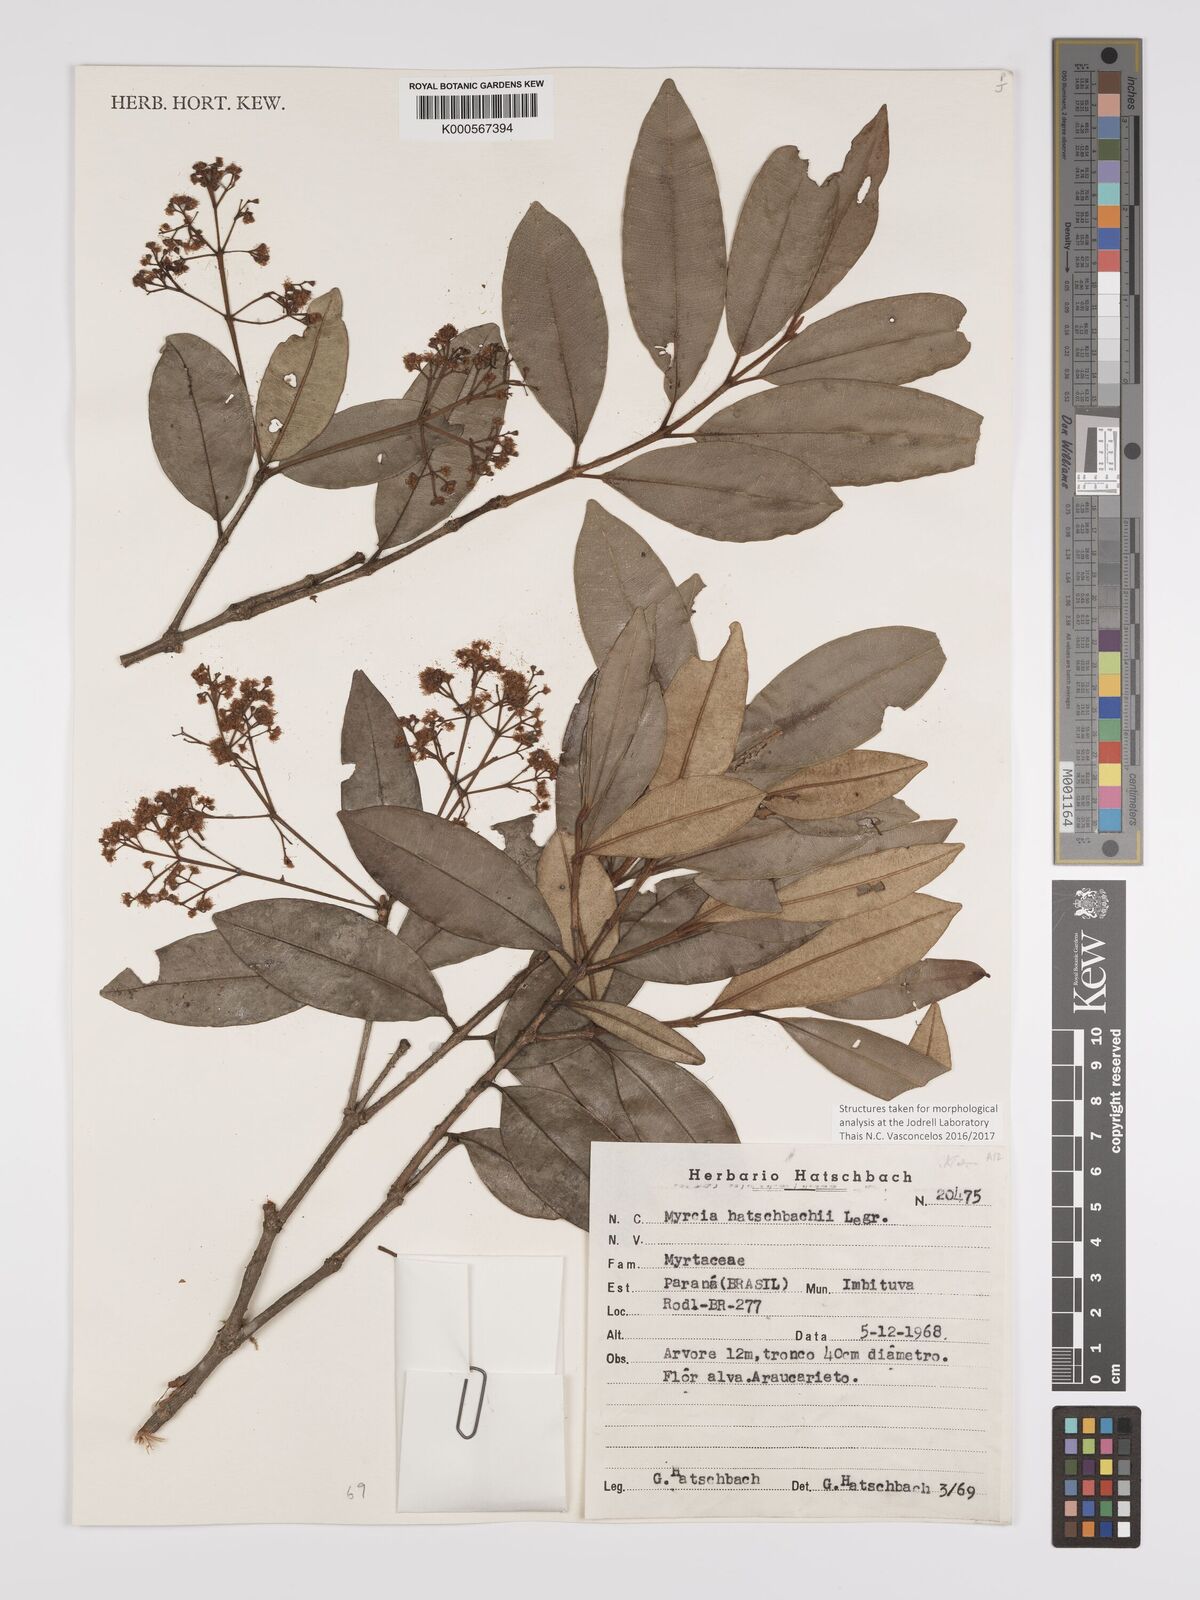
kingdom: Plantae
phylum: Tracheophyta
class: Magnoliopsida
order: Myrtales
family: Myrtaceae
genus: Myrcia
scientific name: Myrcia hatschbachii
